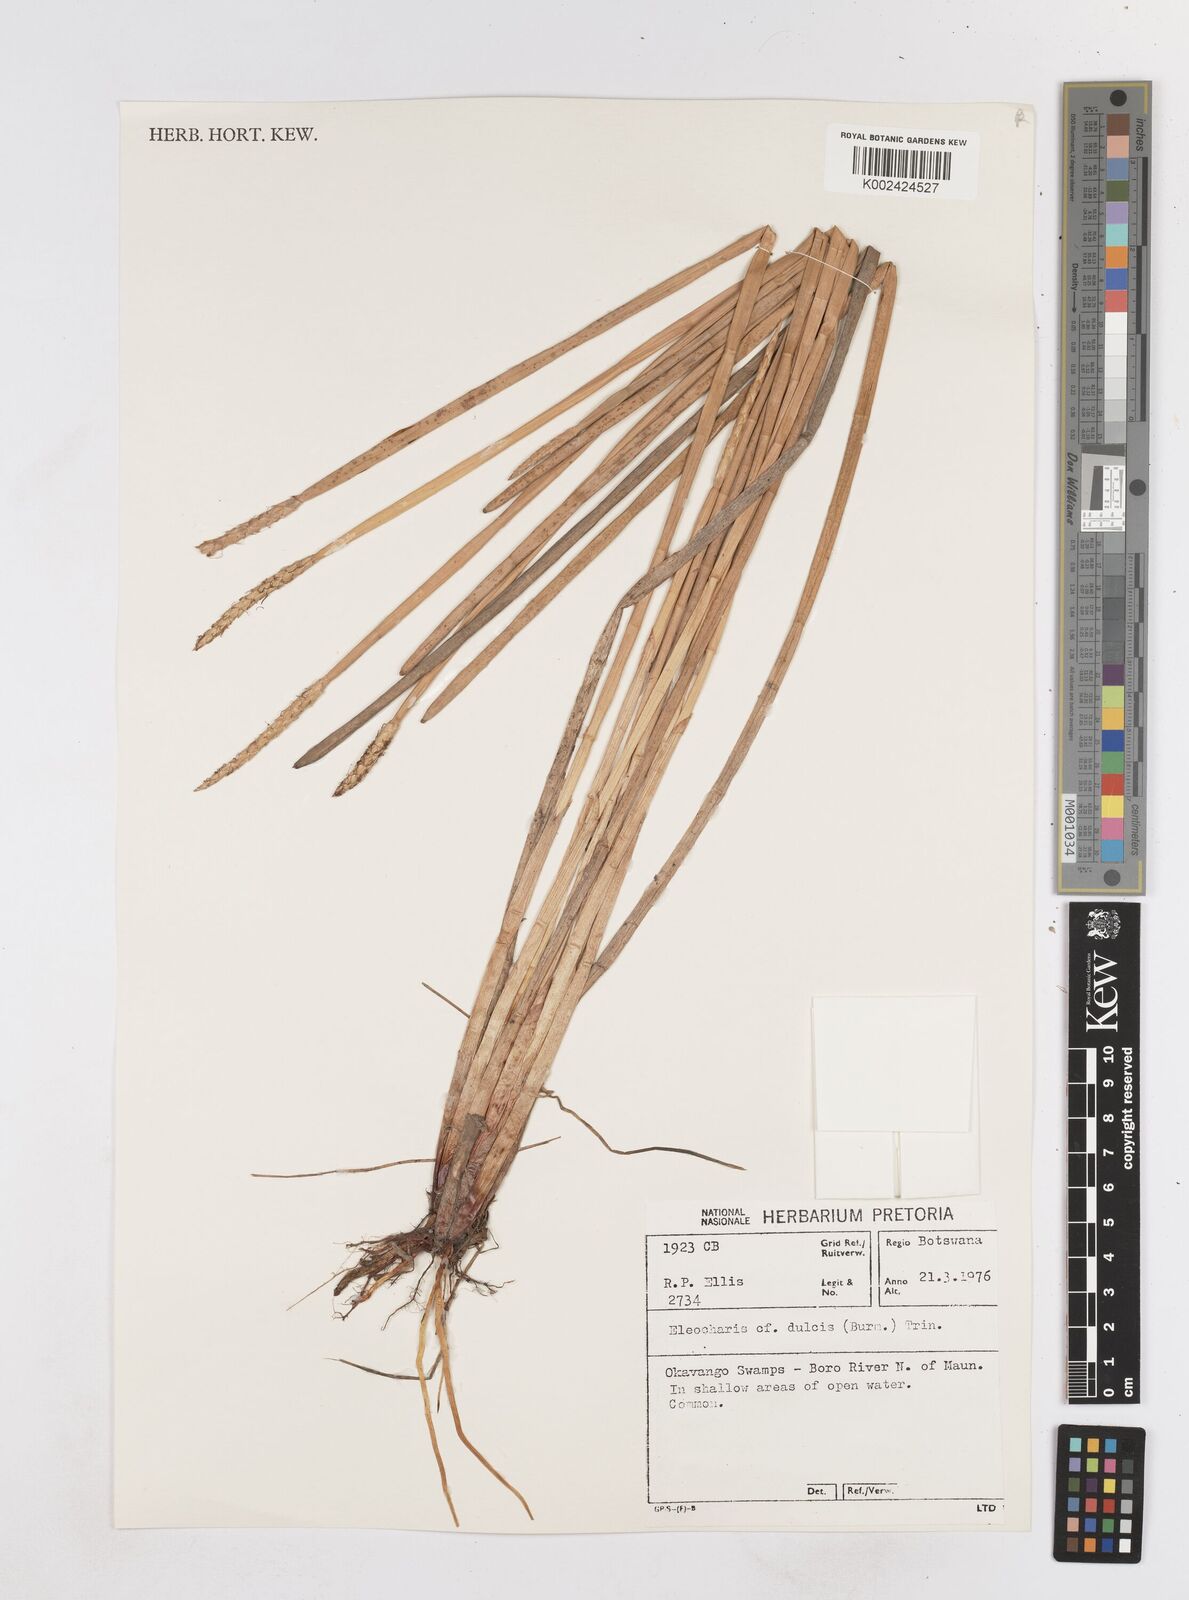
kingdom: Plantae
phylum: Tracheophyta
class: Liliopsida
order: Poales
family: Cyperaceae
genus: Eleocharis
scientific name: Eleocharis dulcis
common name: Chinese water chestnut
